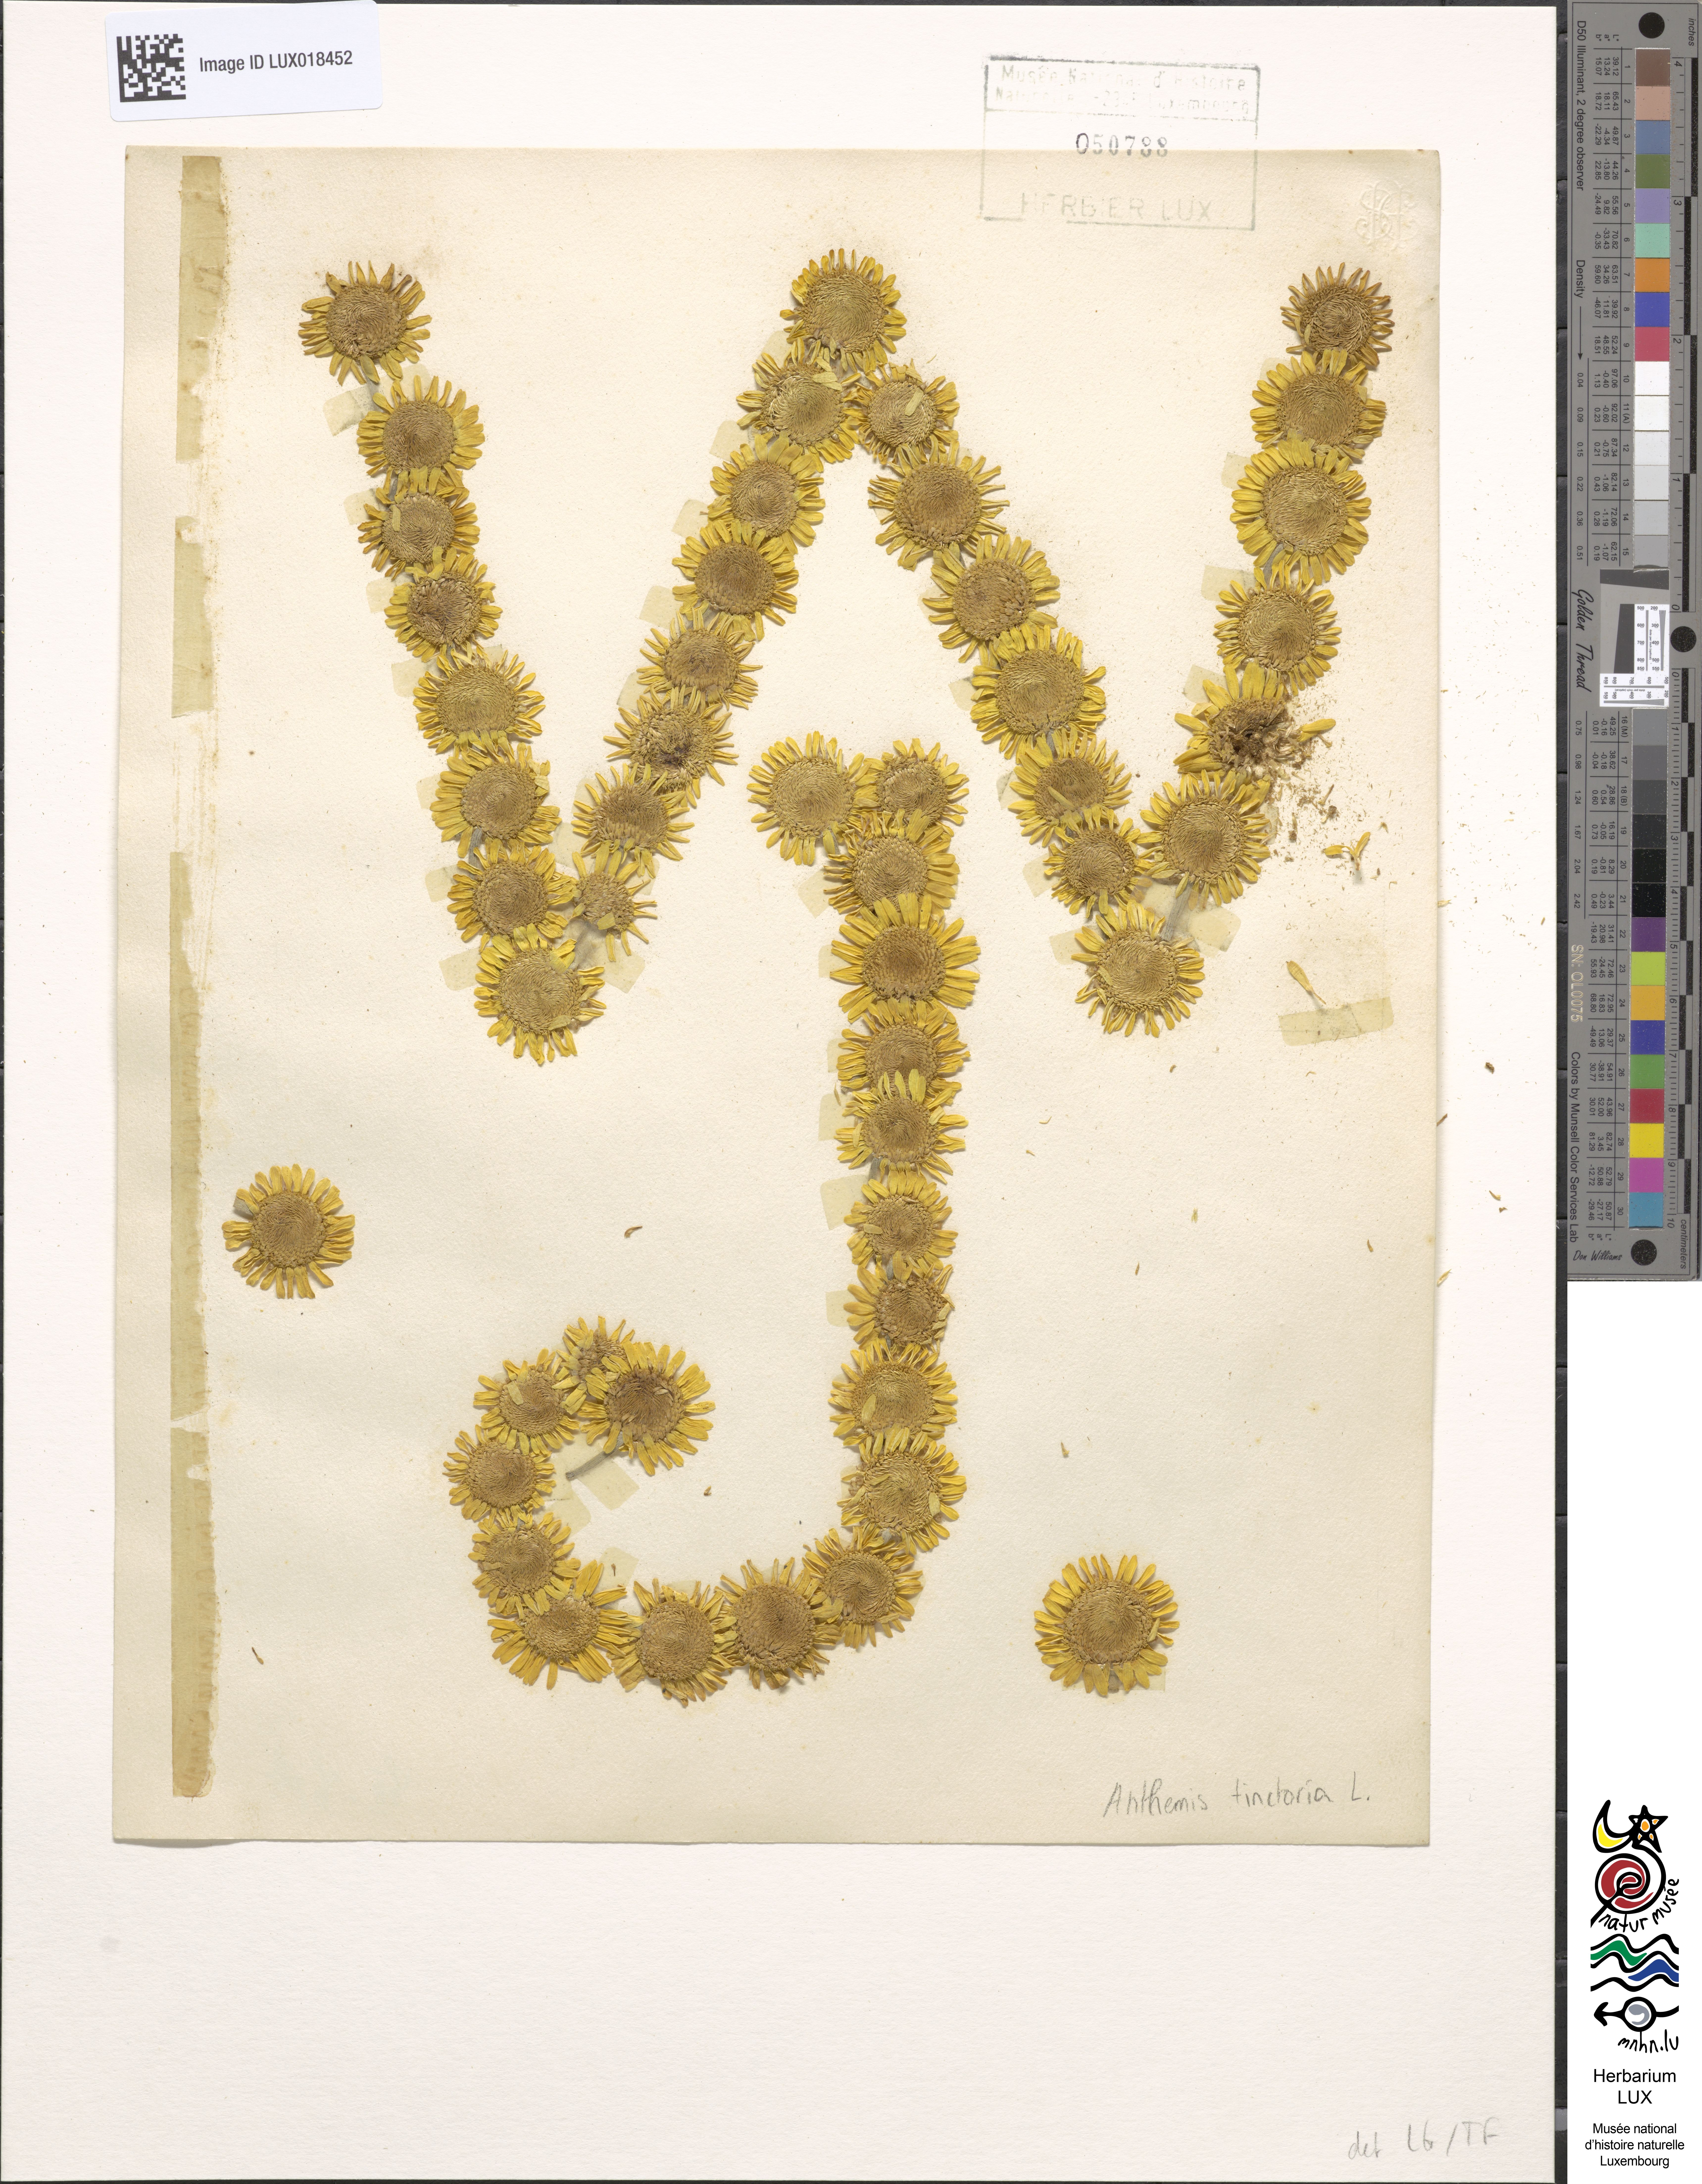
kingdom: Plantae
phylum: Tracheophyta
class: Magnoliopsida
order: Asterales
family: Asteraceae
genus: Cota
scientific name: Cota tinctoria
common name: Golden chamomile
